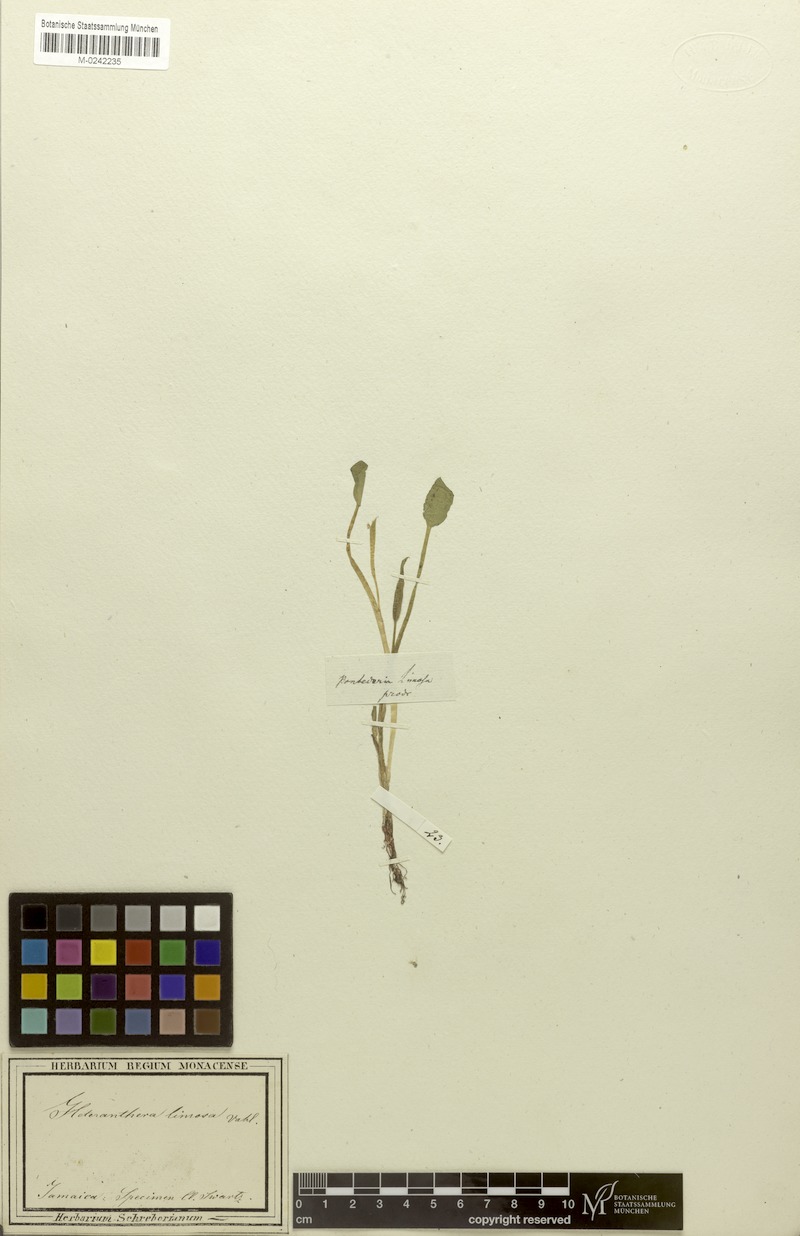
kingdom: Plantae
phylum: Tracheophyta
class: Liliopsida
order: Commelinales
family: Pontederiaceae
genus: Heteranthera
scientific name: Heteranthera limosa
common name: Blue mud-plantain
